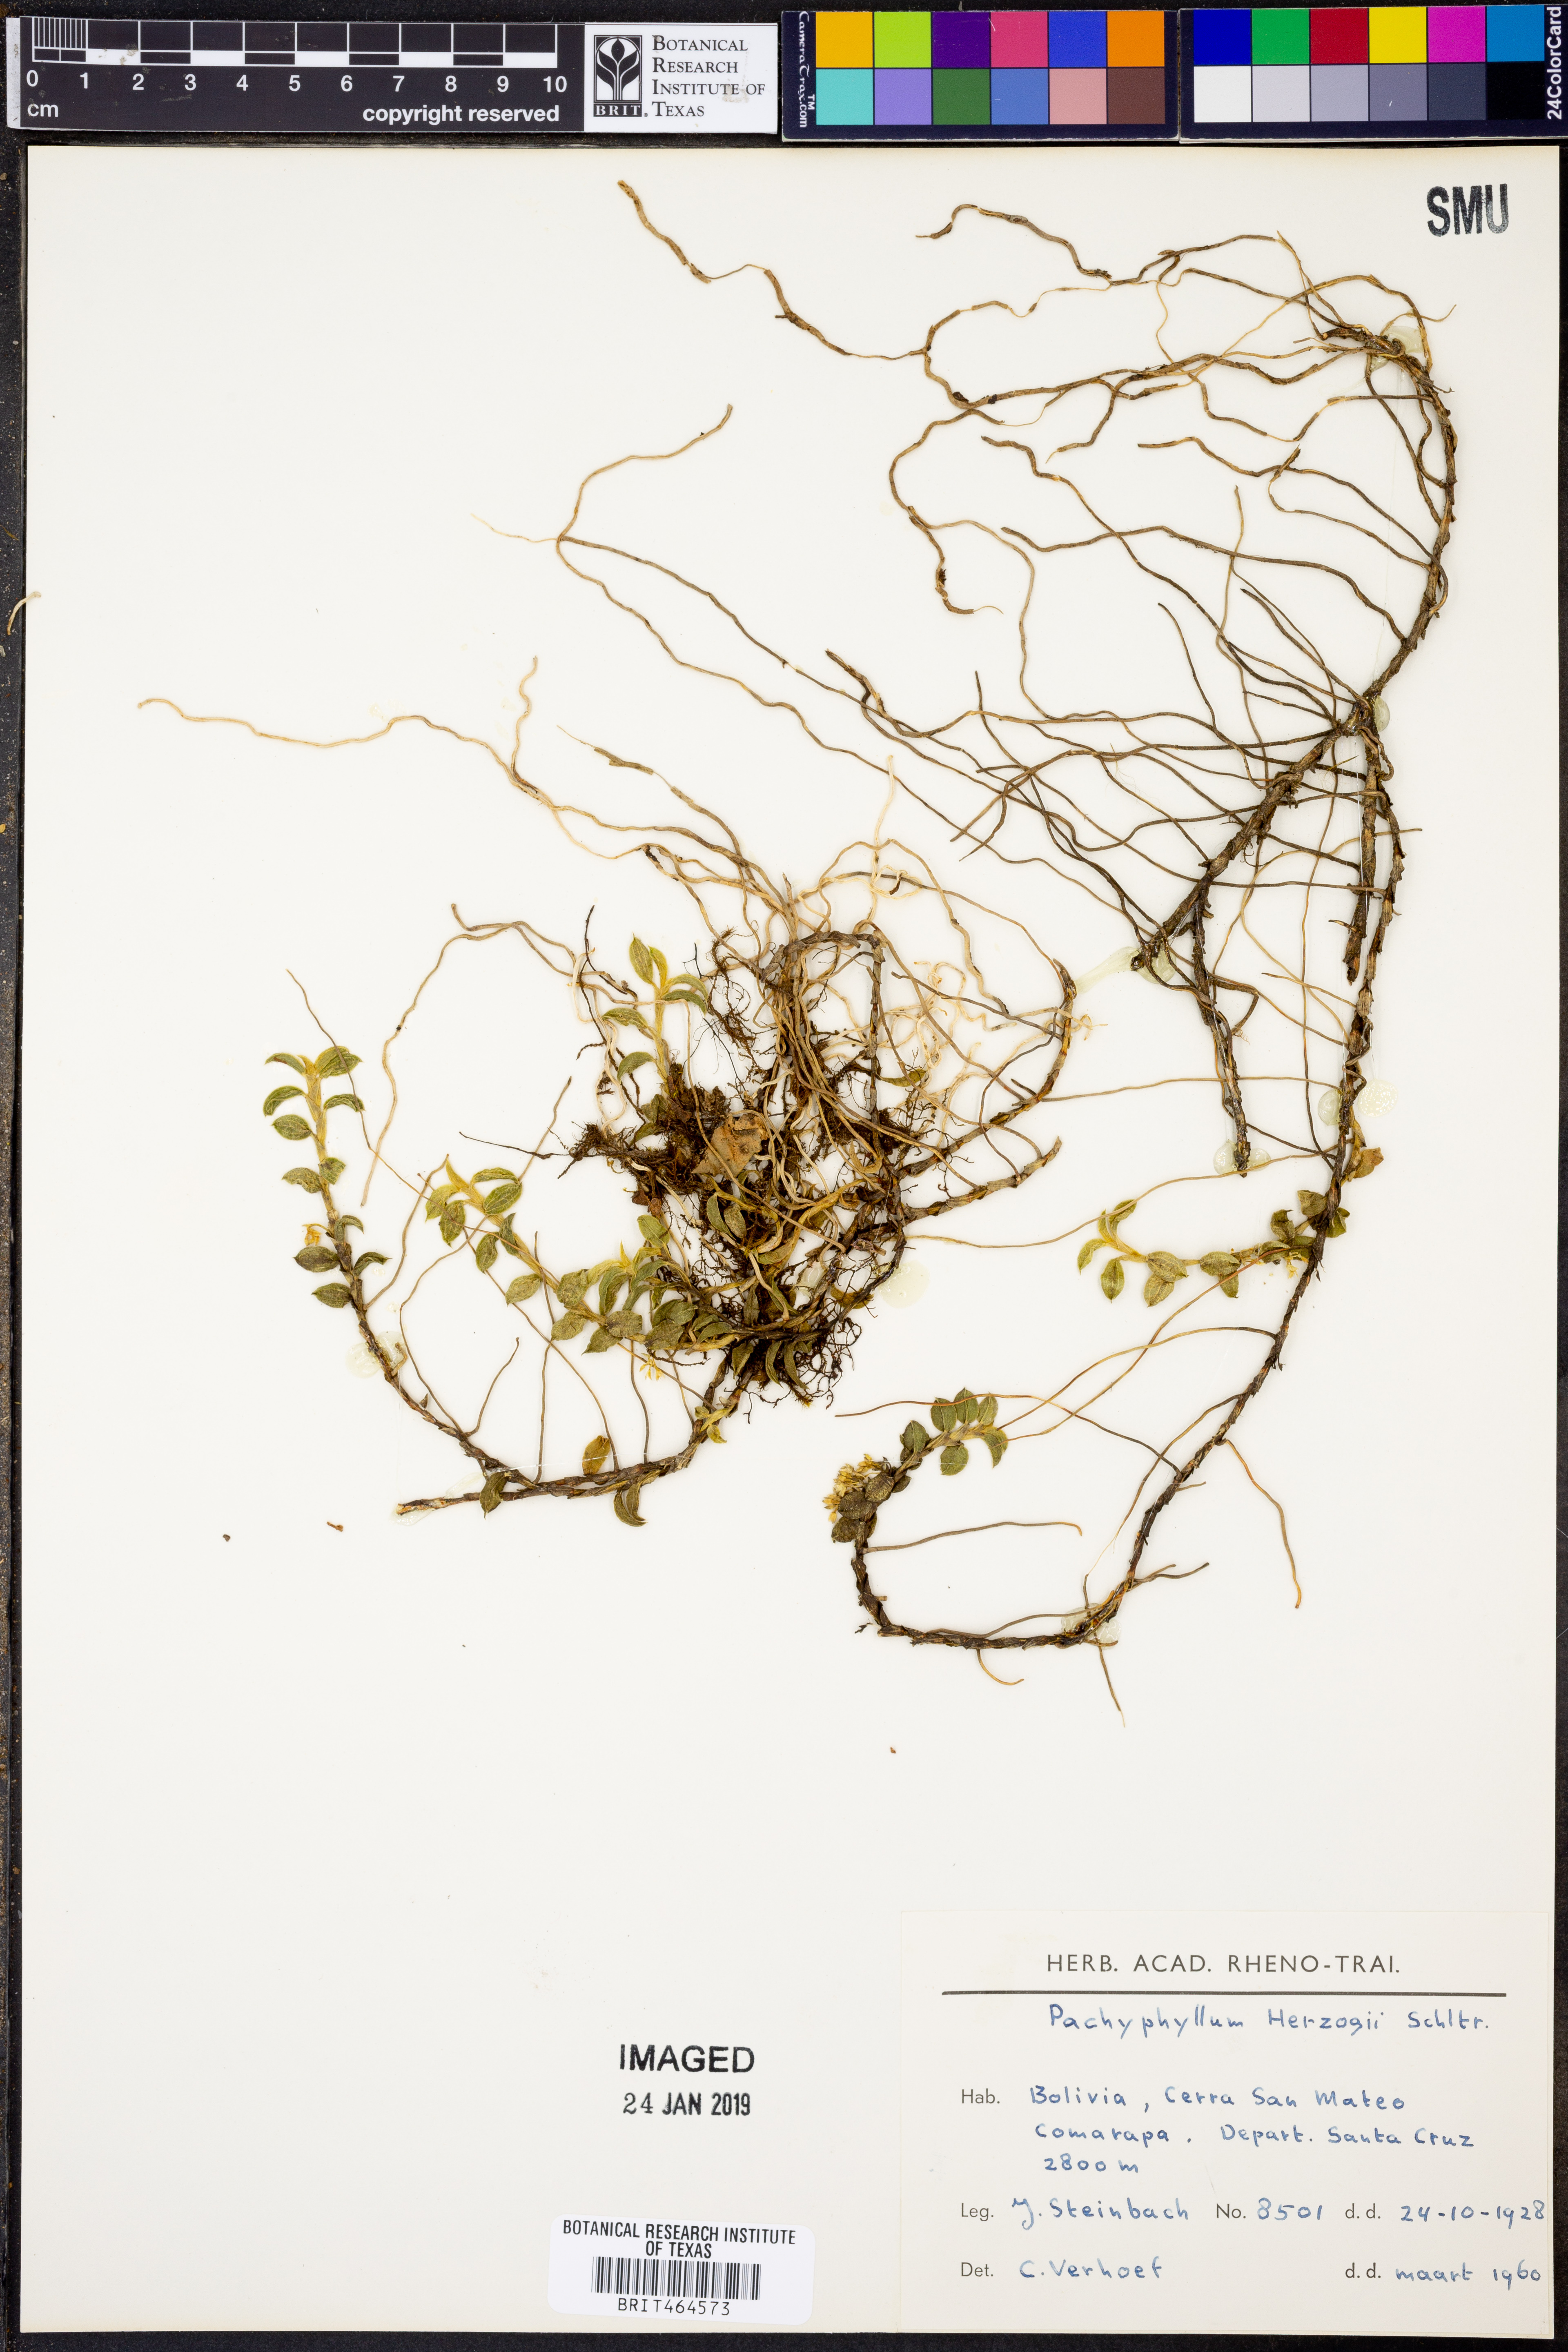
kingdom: Plantae
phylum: Tracheophyta
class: Liliopsida
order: Asparagales
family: Orchidaceae
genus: Fernandezia
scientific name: Fernandezia herzogii
